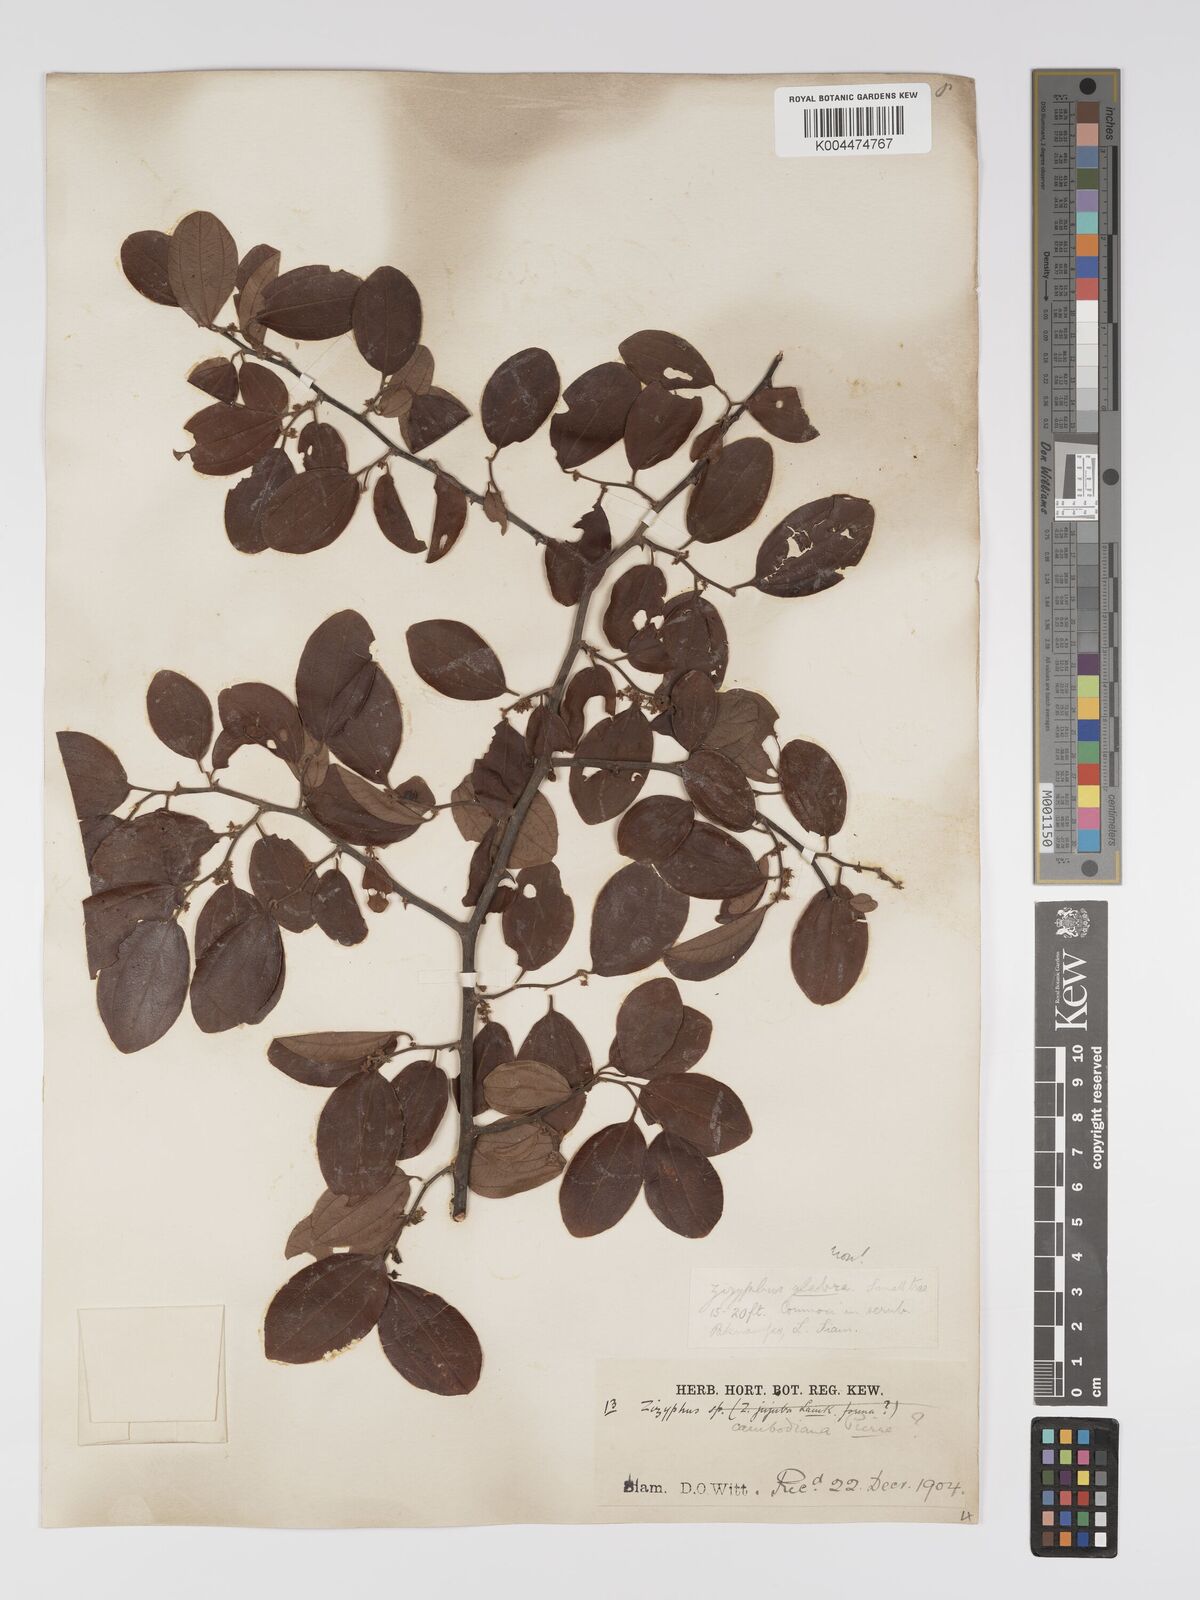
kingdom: Plantae
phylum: Tracheophyta
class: Magnoliopsida
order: Rosales
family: Rhamnaceae
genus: Ziziphus
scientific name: Ziziphus cambodiana
